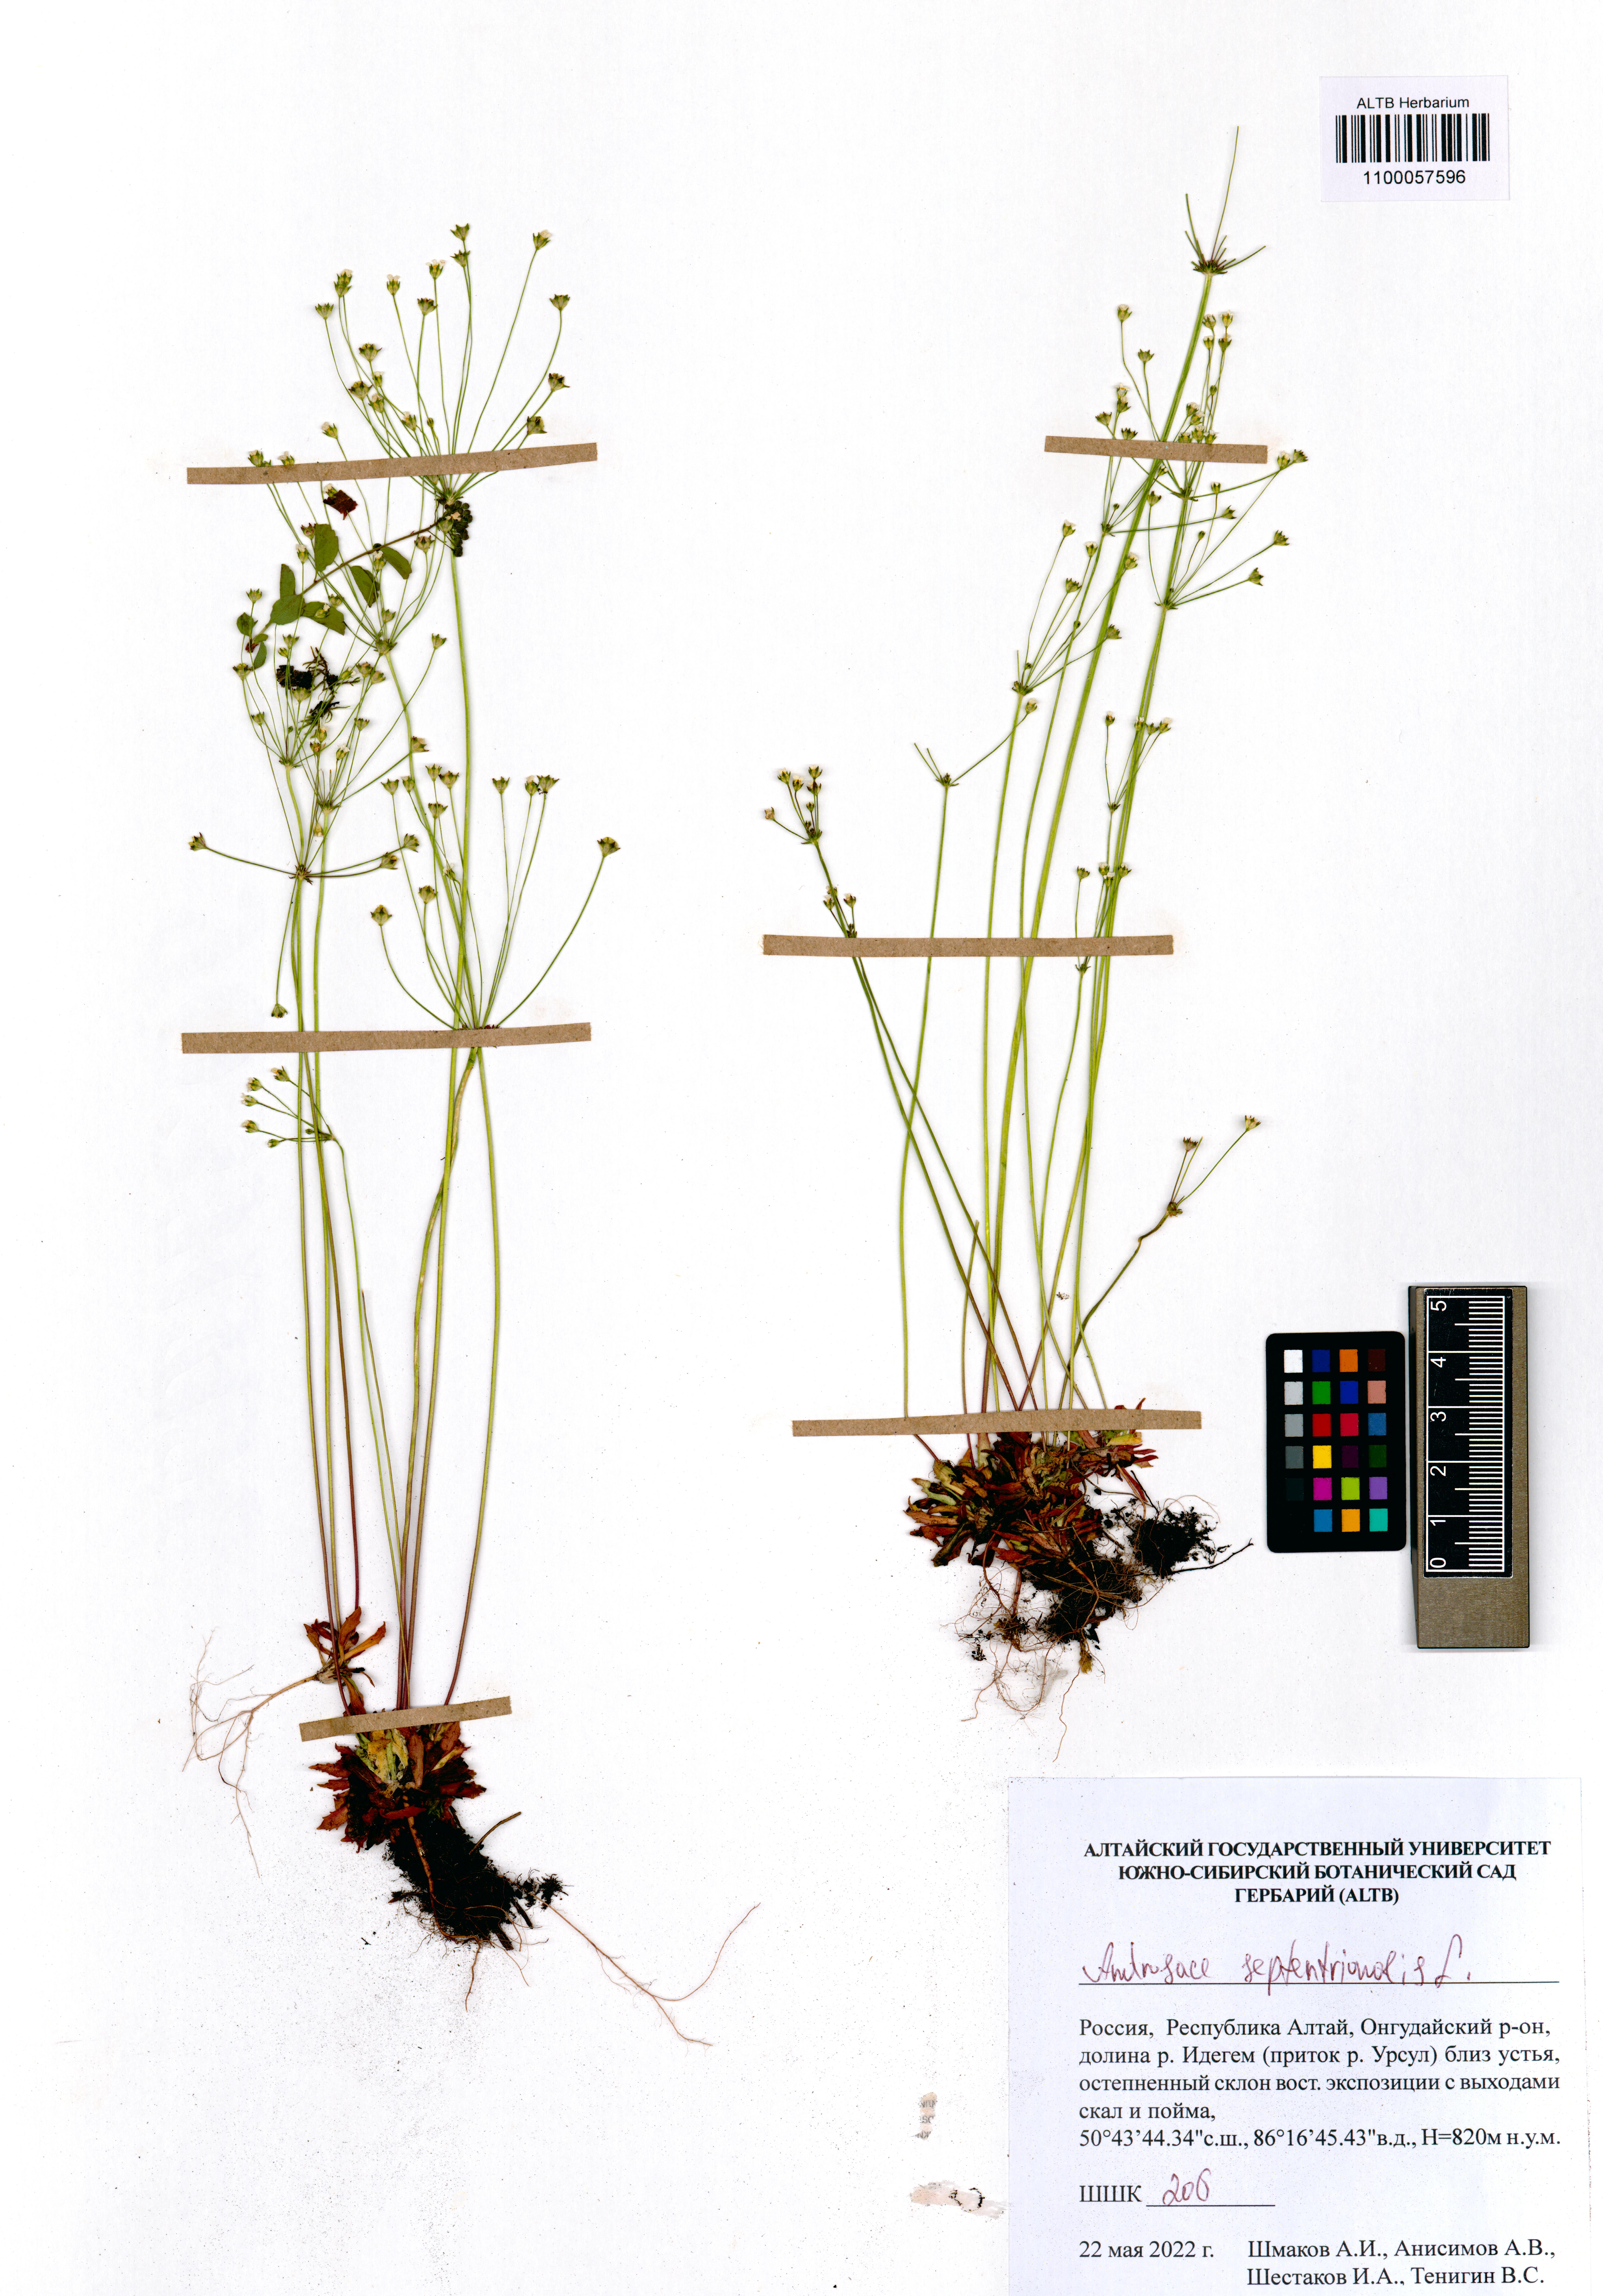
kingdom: Plantae
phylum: Tracheophyta
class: Magnoliopsida
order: Ericales
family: Primulaceae
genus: Androsace
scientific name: Androsace septentrionalis
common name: Hairy northern fairy-candelabra
